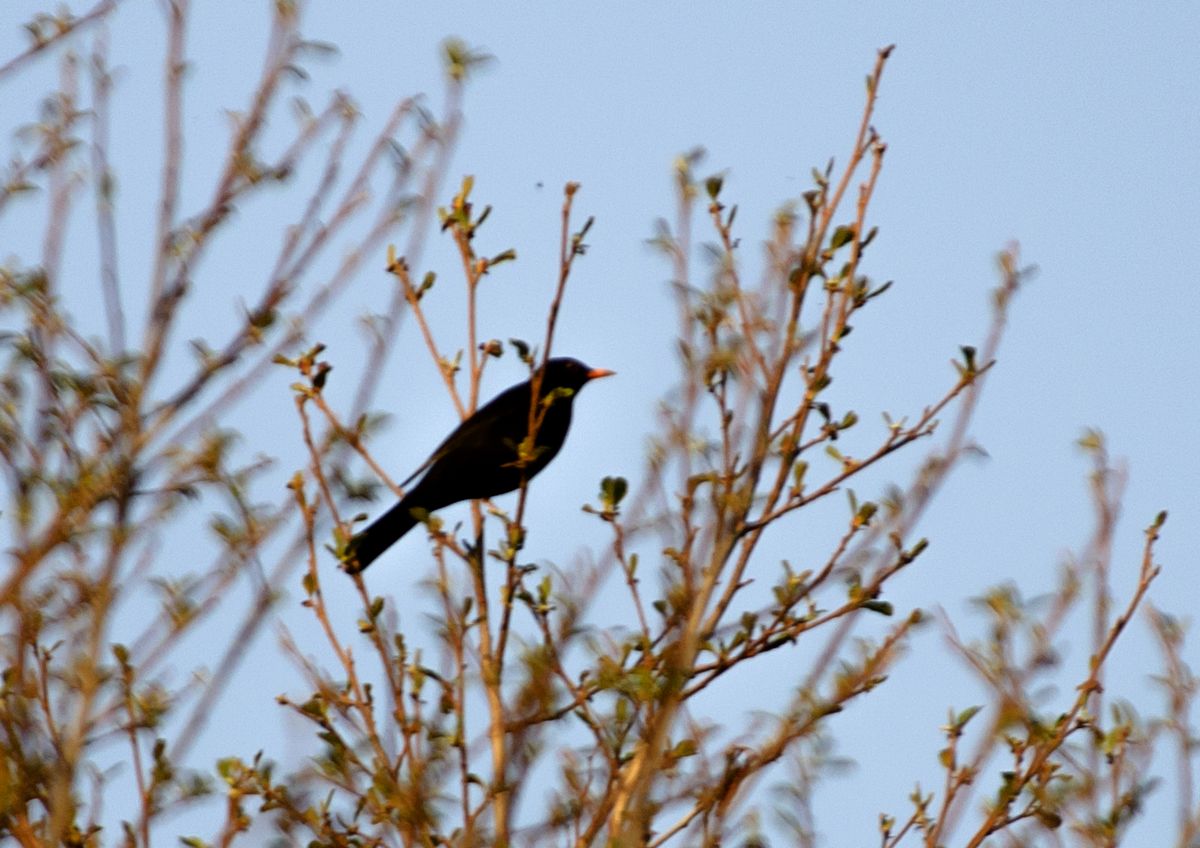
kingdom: Animalia
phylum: Chordata
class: Aves
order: Passeriformes
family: Turdidae
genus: Turdus
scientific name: Turdus merula
